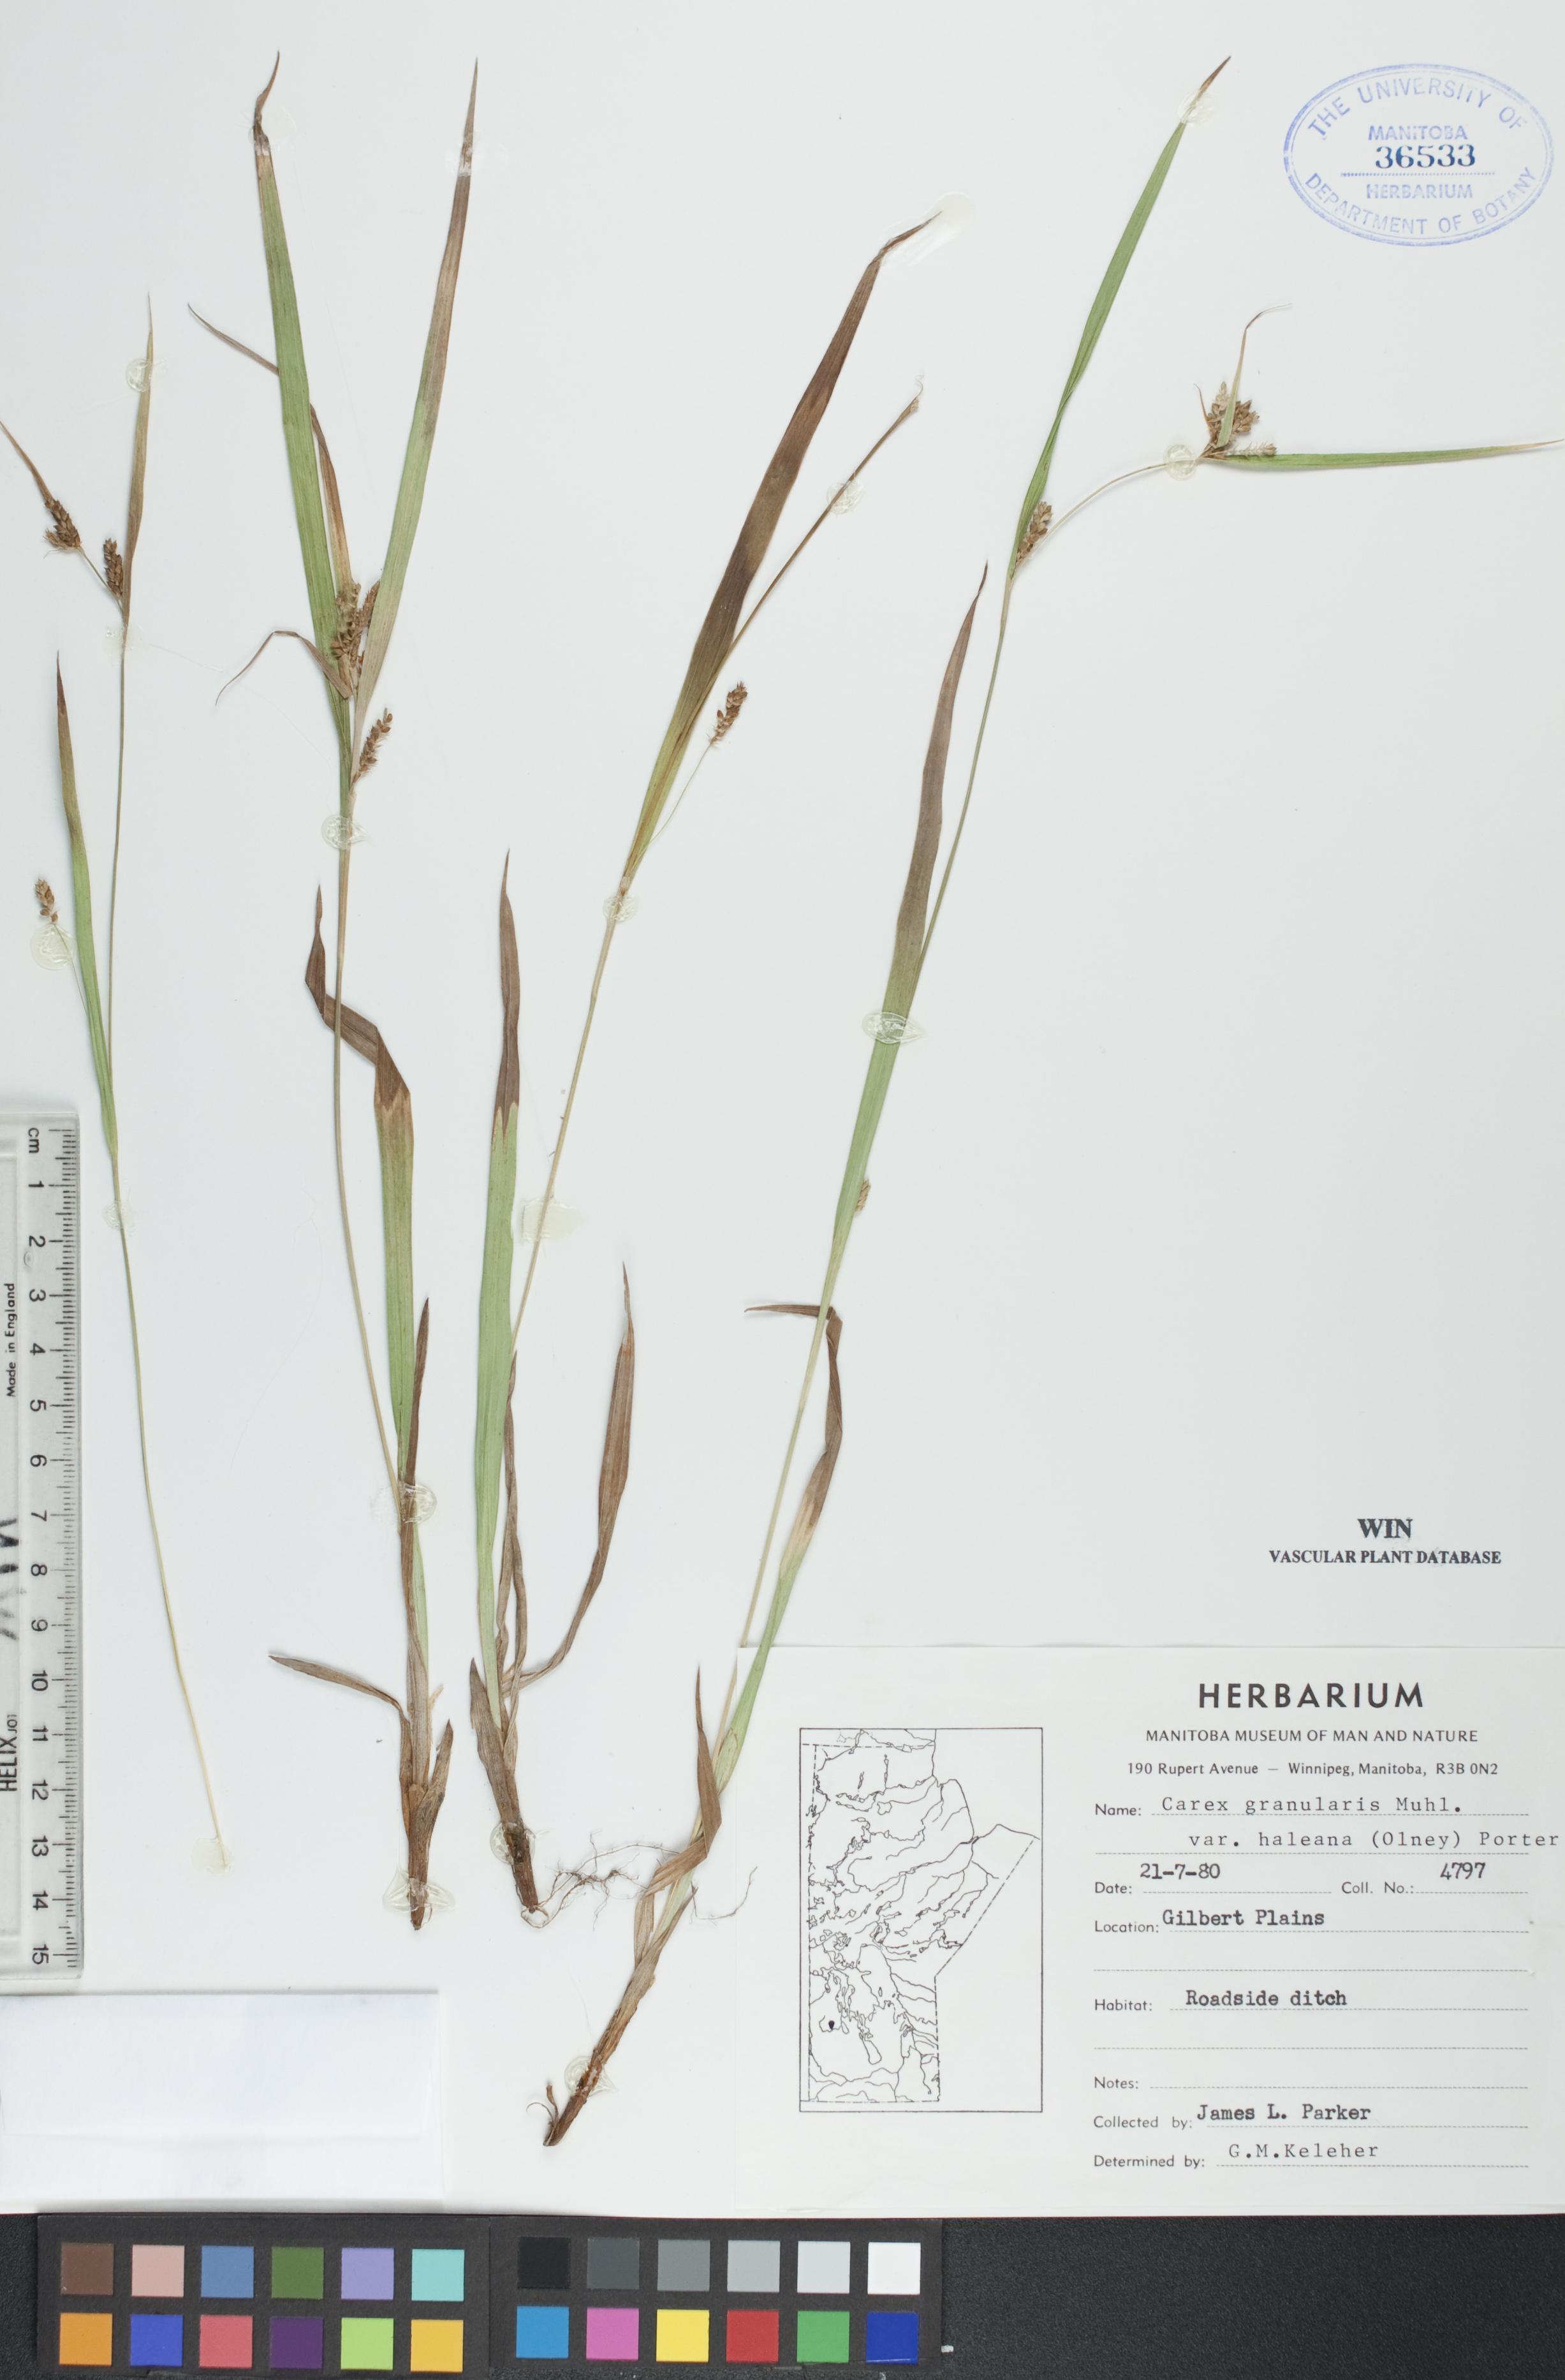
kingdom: Plantae
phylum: Tracheophyta
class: Liliopsida
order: Poales
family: Cyperaceae
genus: Carex
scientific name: Carex granularis
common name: Granular sedge
